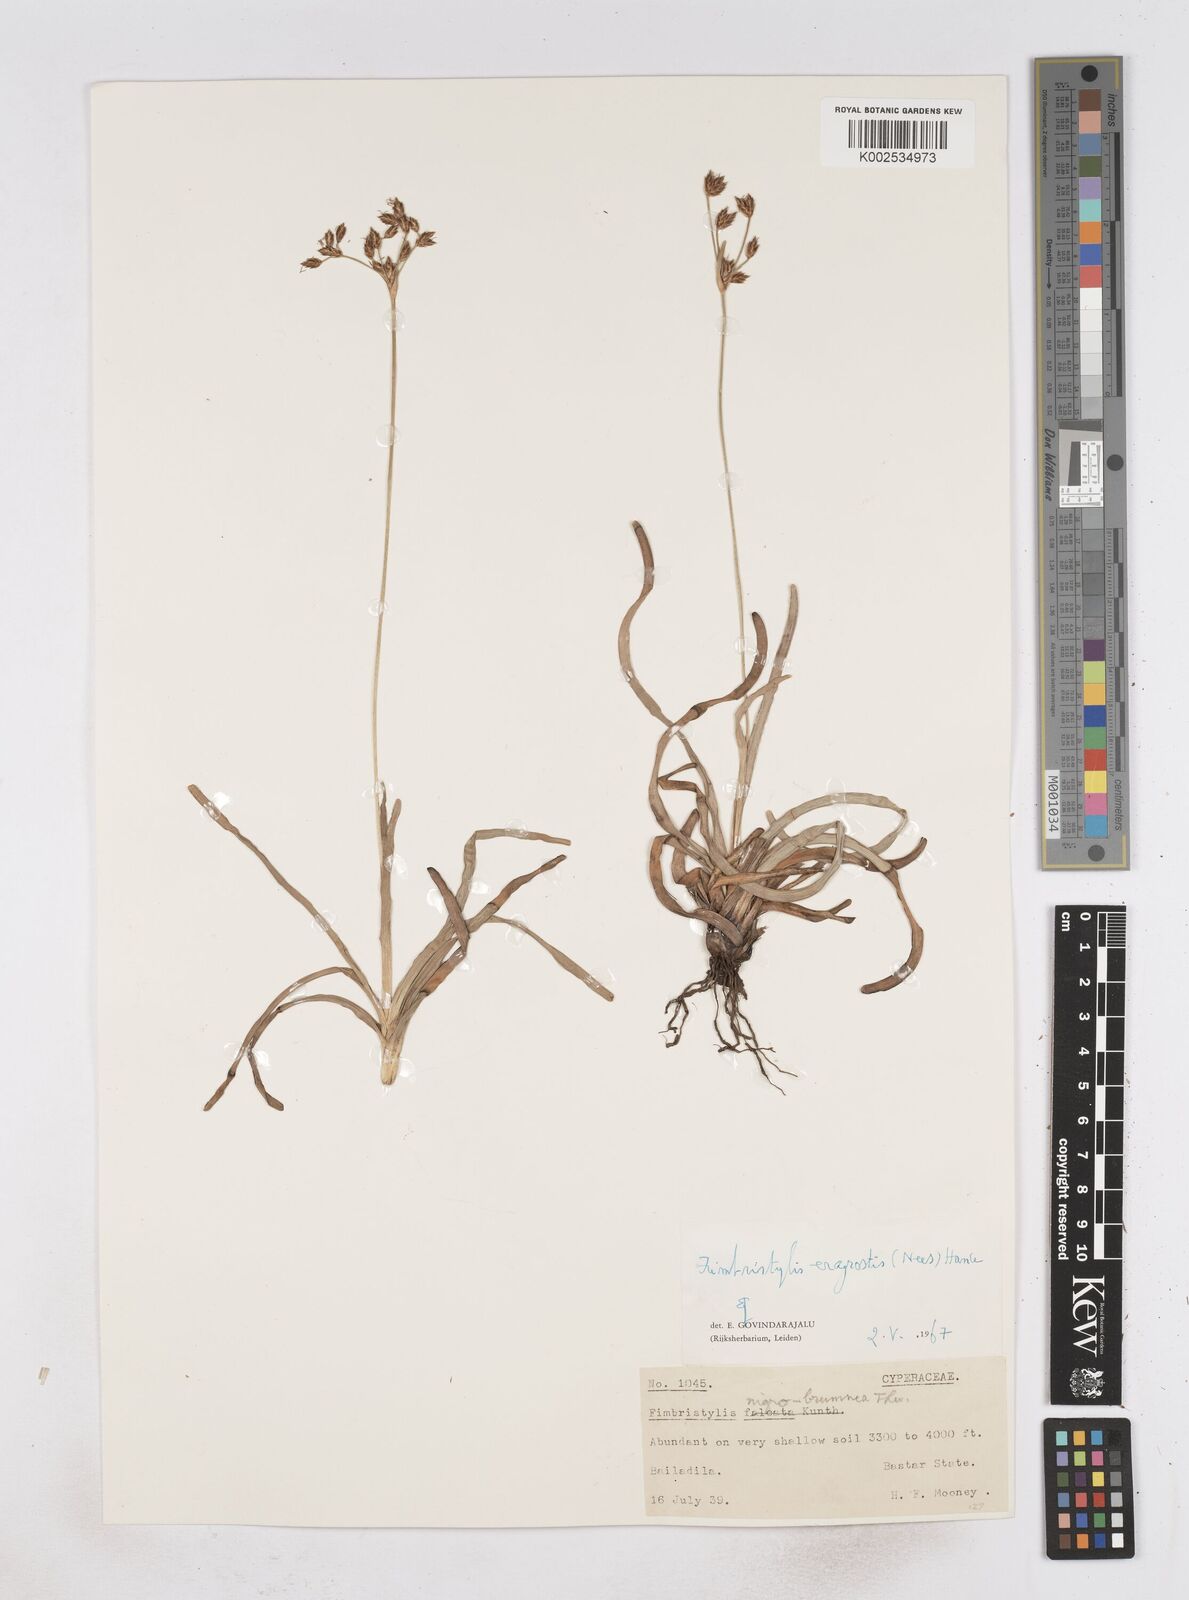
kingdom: Plantae
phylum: Tracheophyta
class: Liliopsida
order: Poales
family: Cyperaceae
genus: Fimbristylis
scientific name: Fimbristylis nigrobrunnea
